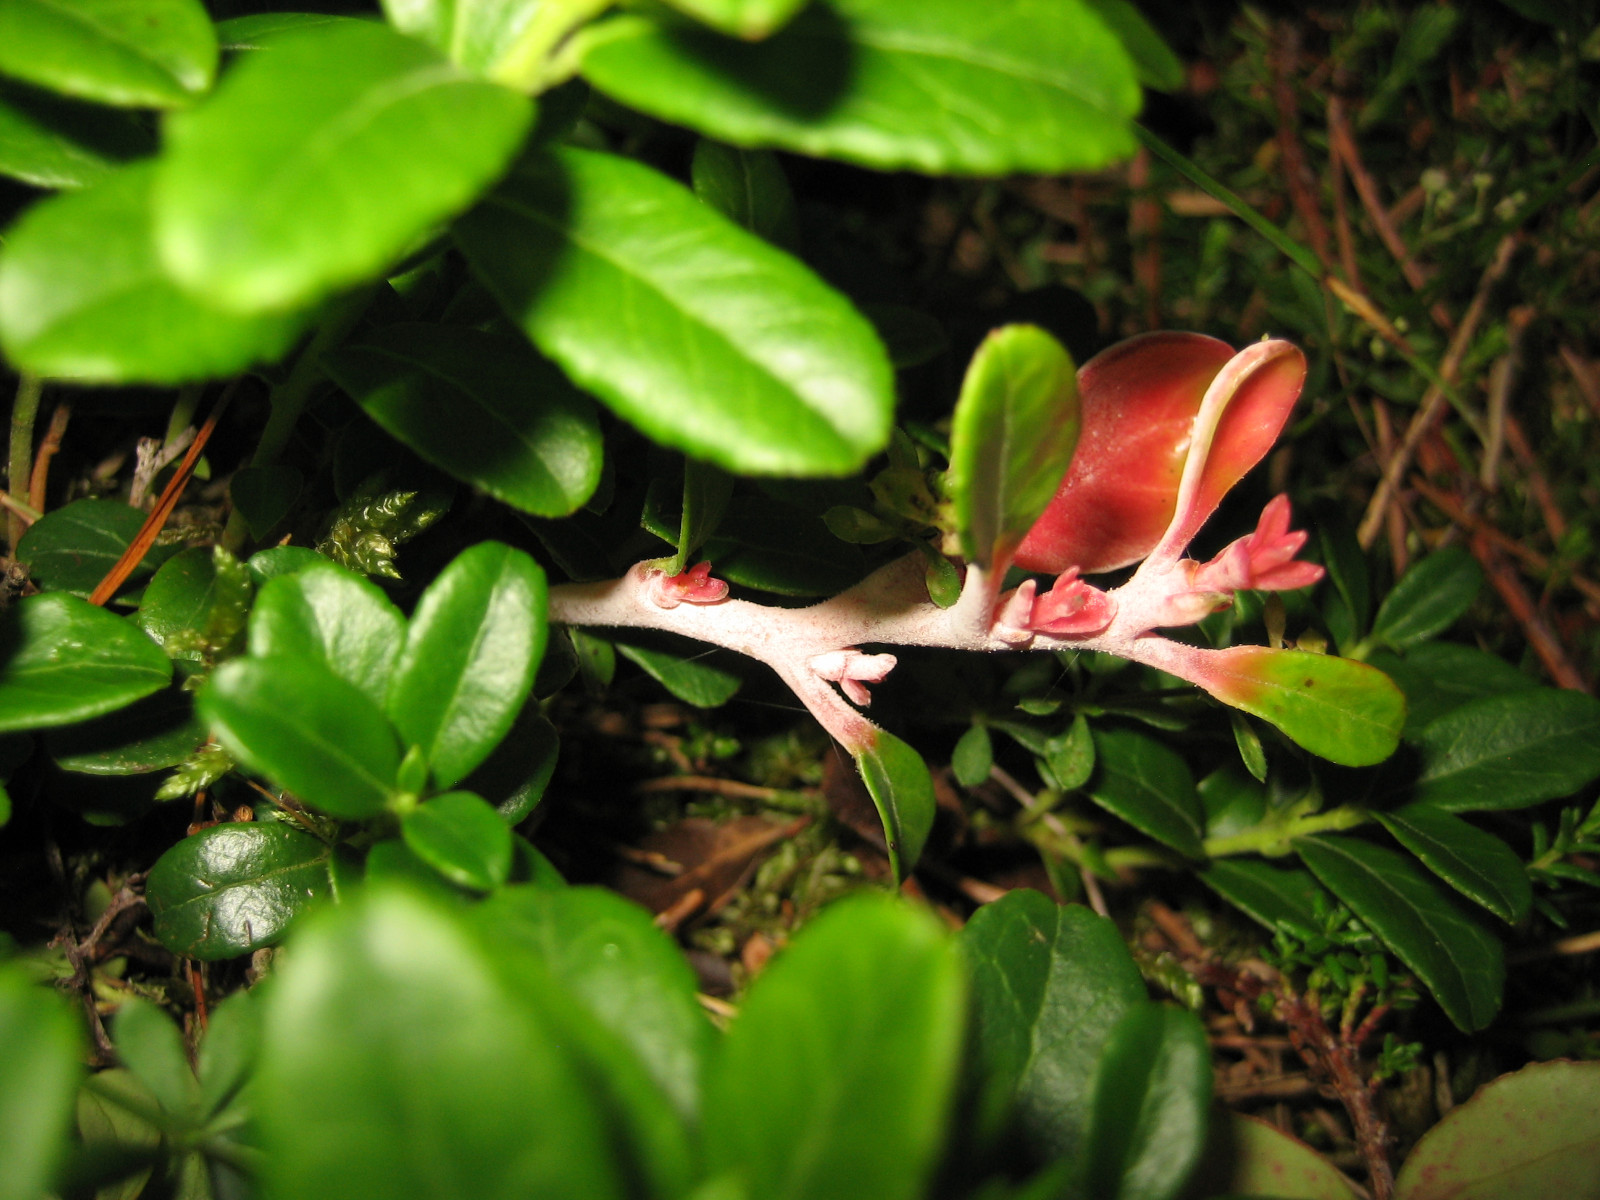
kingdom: Fungi
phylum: Basidiomycota
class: Exobasidiomycetes
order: Exobasidiales
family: Exobasidiaceae
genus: Exobasidium
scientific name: Exobasidium vaccinii
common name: tyttebærblad-bøllesvamp
